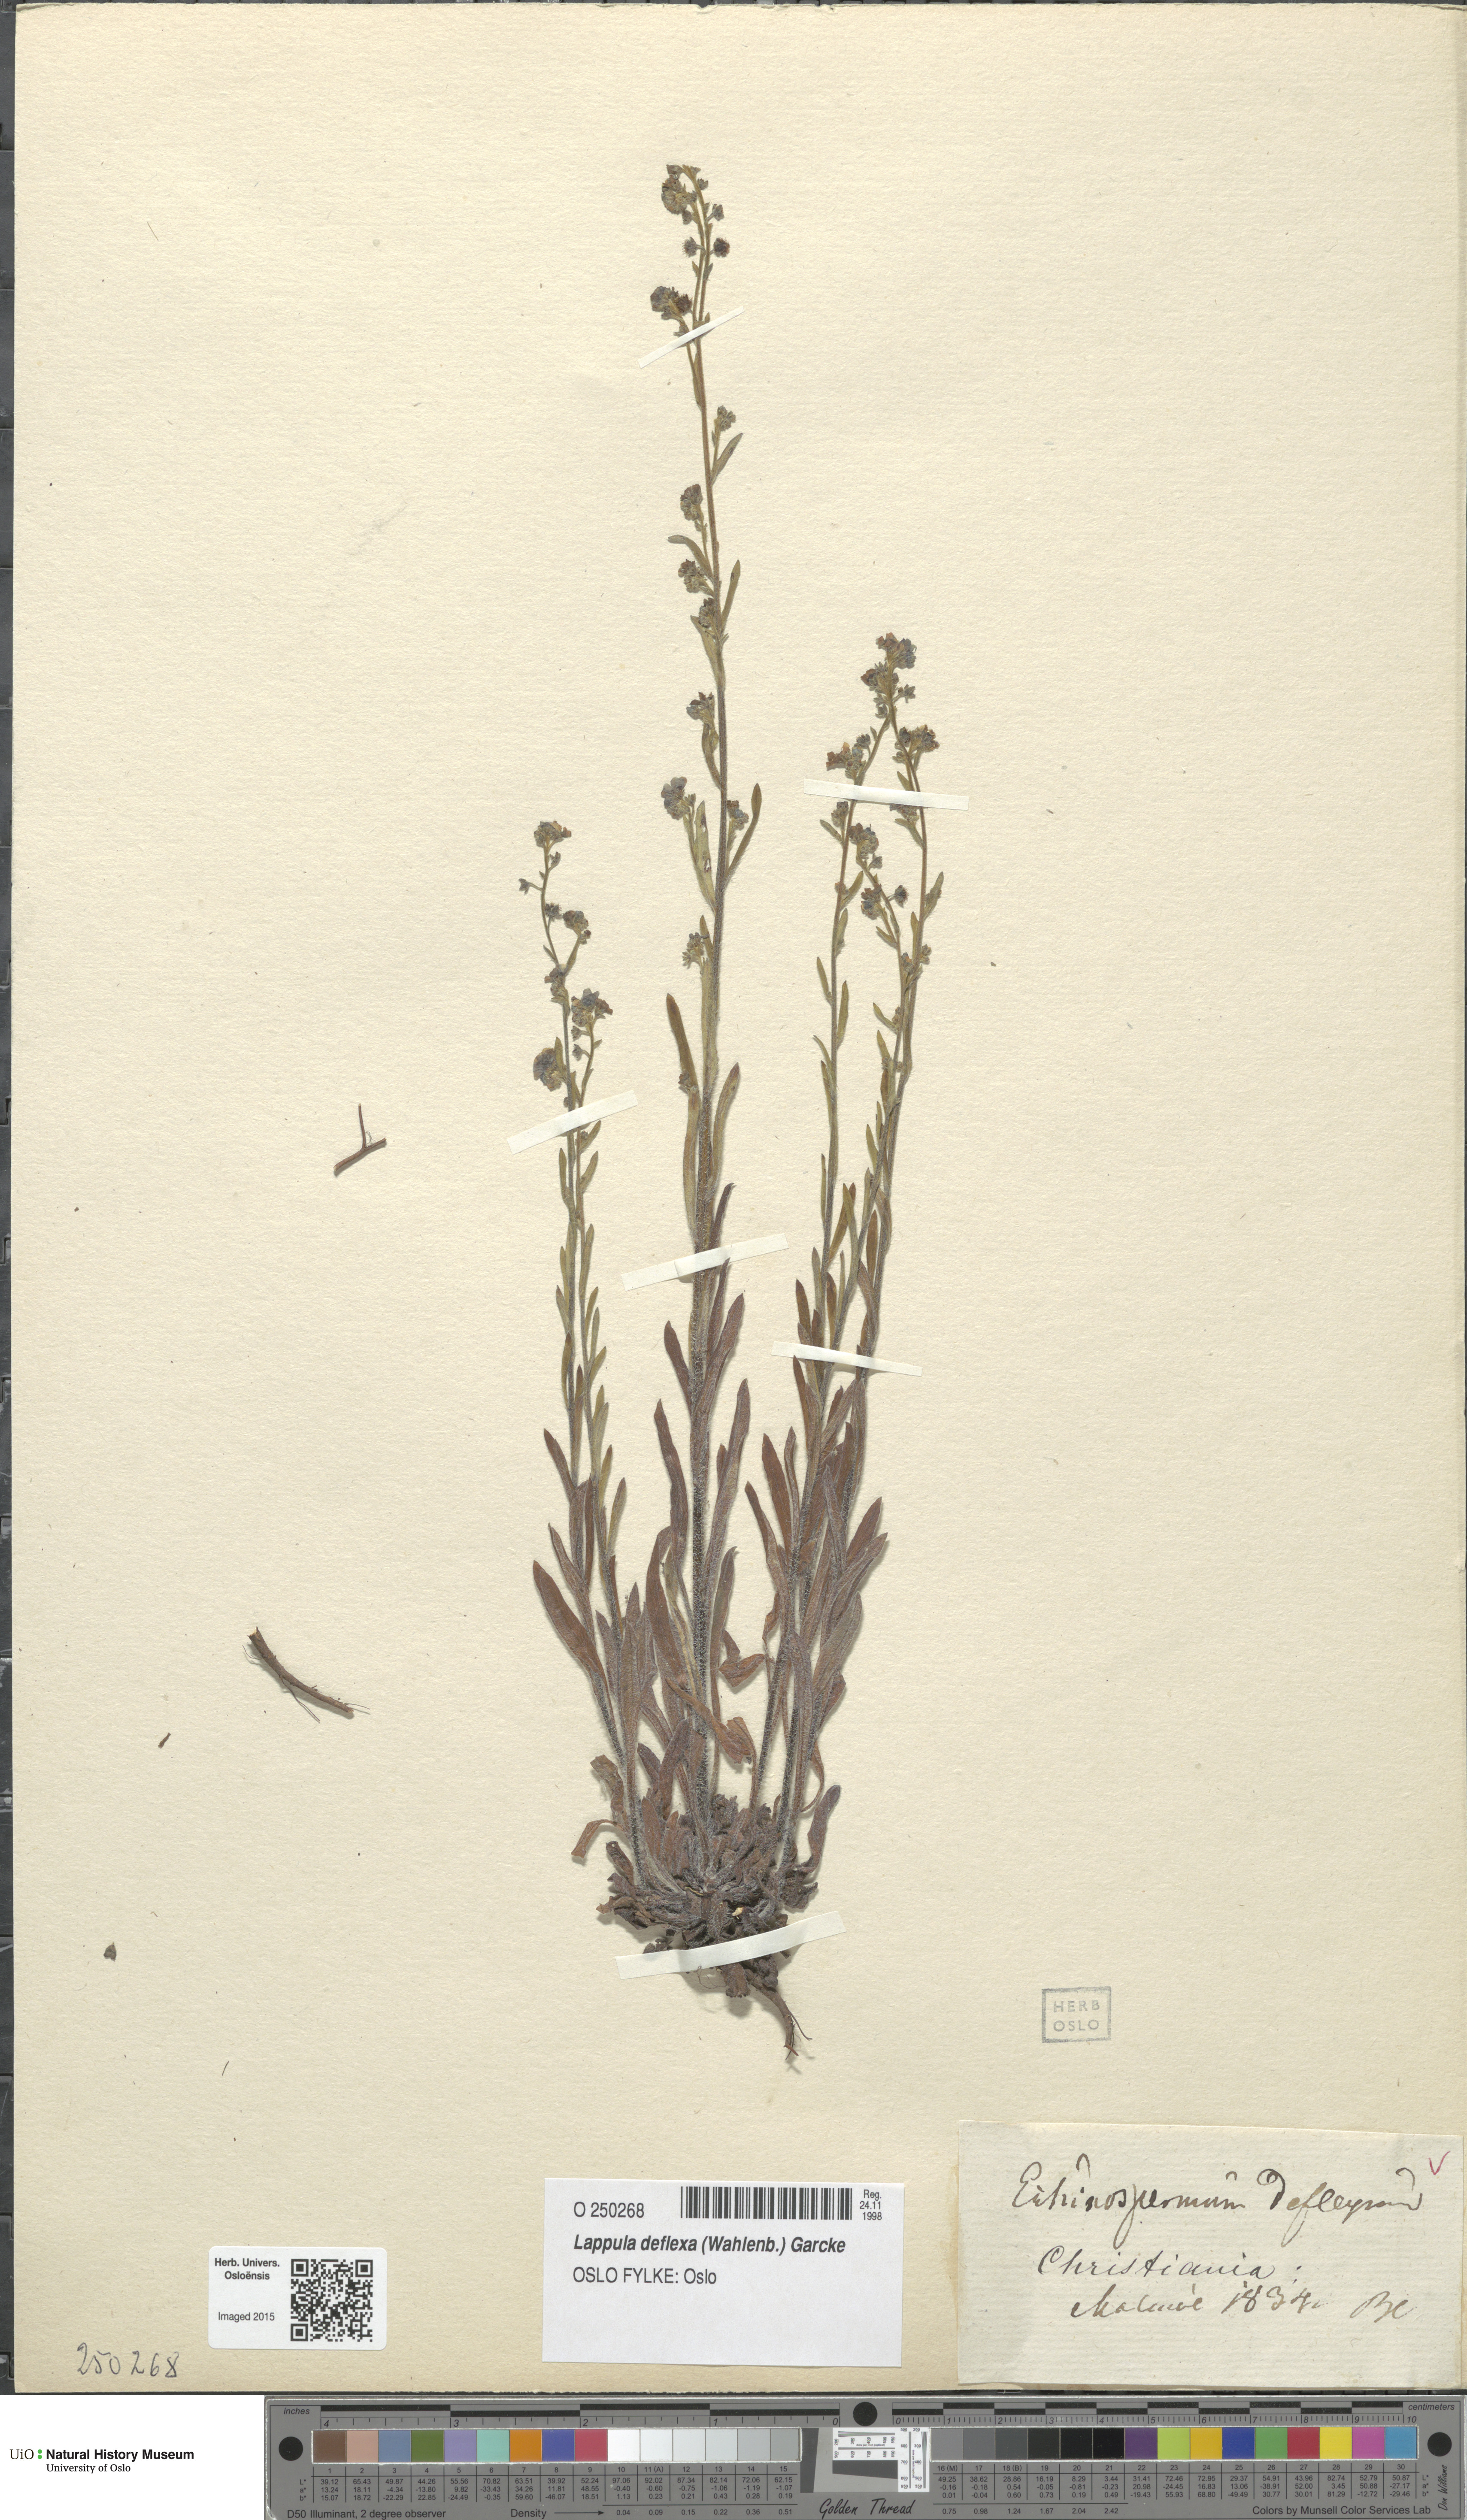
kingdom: Plantae
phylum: Tracheophyta
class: Magnoliopsida
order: Boraginales
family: Boraginaceae
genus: Hackelia
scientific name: Hackelia deflexa
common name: Nodding stickseed
